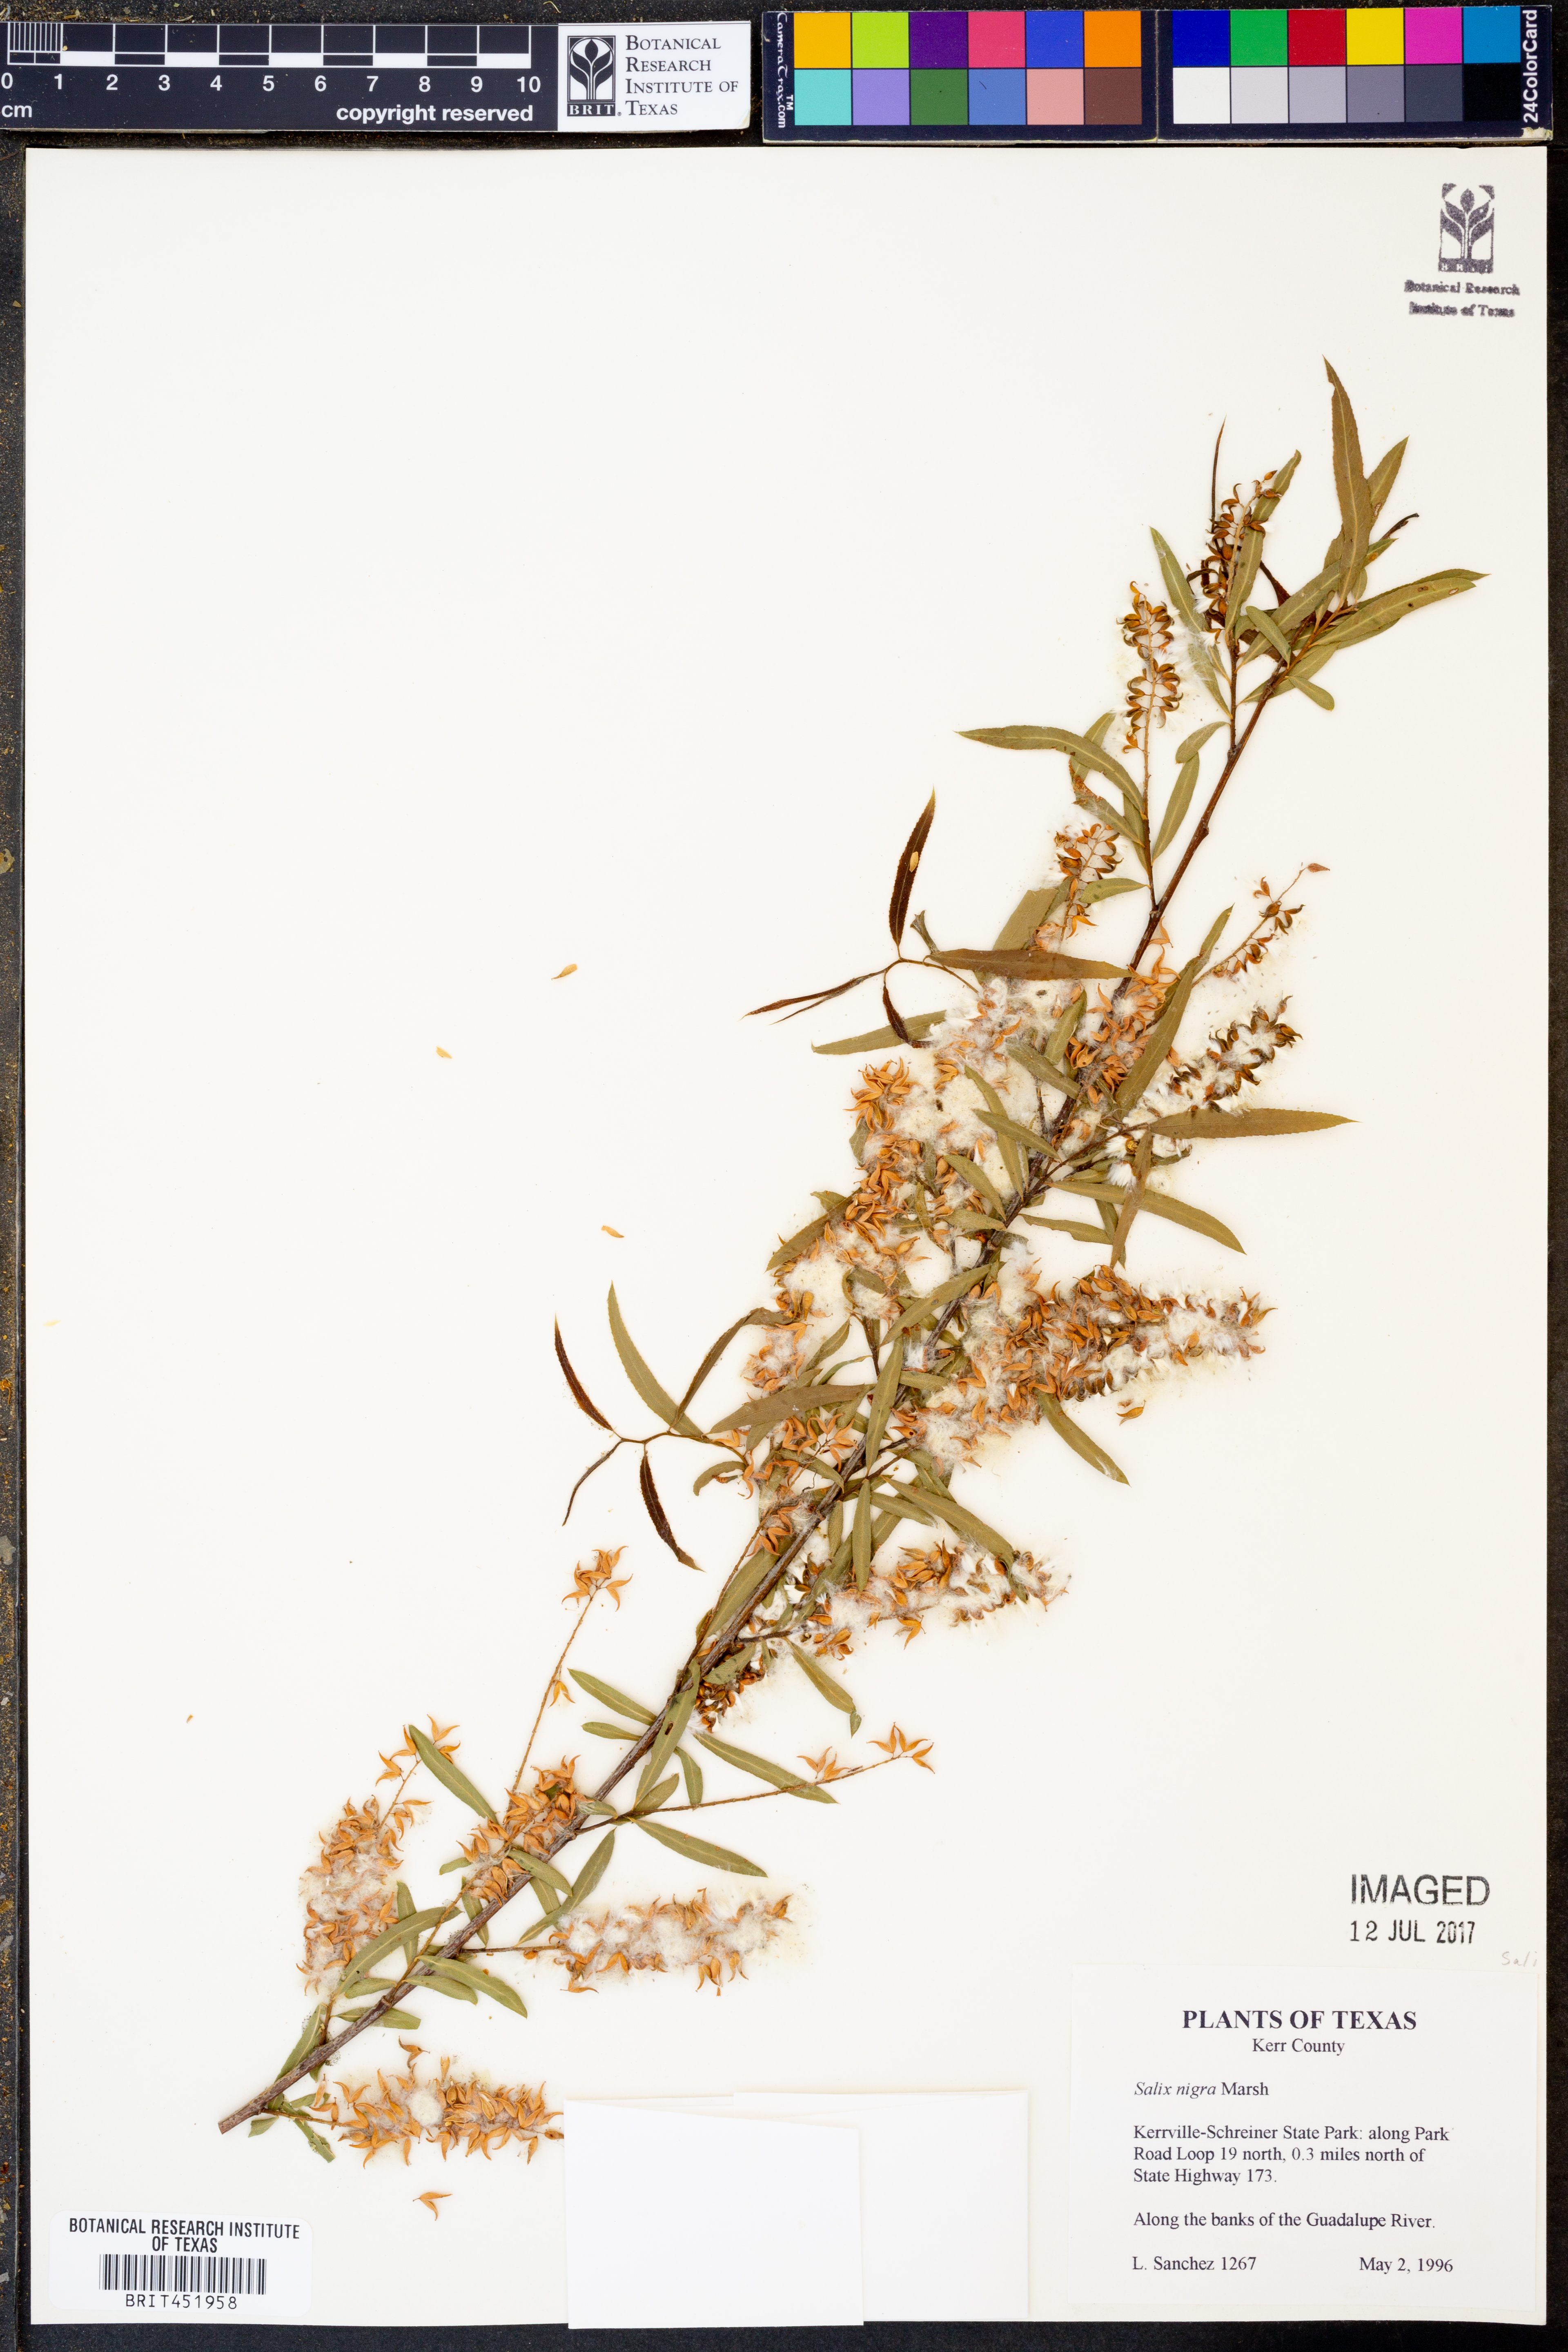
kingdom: Plantae
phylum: Tracheophyta
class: Magnoliopsida
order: Malpighiales
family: Salicaceae
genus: Salix
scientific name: Salix nigra
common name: Black willow
